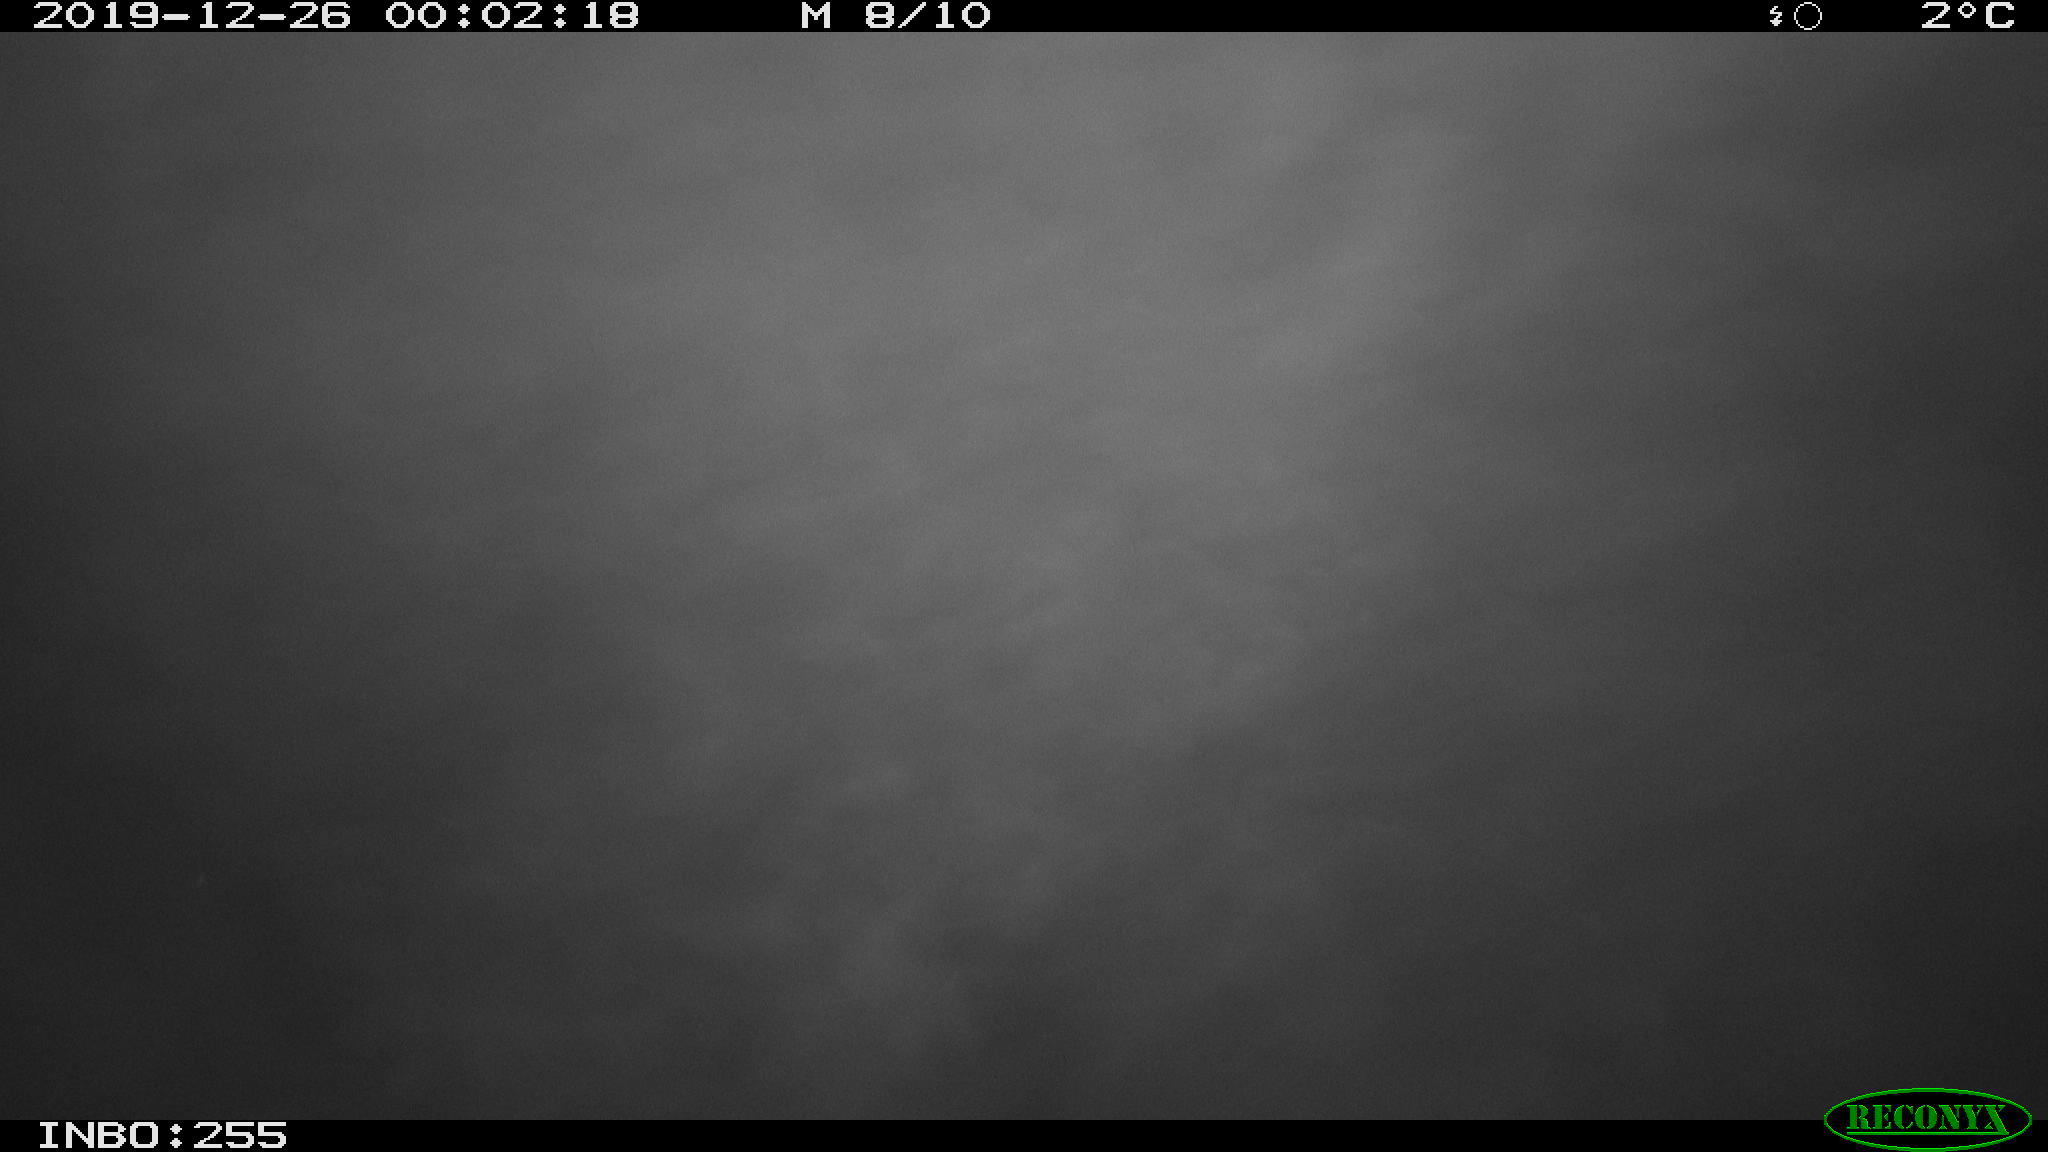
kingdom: Animalia
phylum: Chordata
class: Aves
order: Anseriformes
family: Anatidae
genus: Anas
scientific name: Anas platyrhynchos
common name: Mallard
